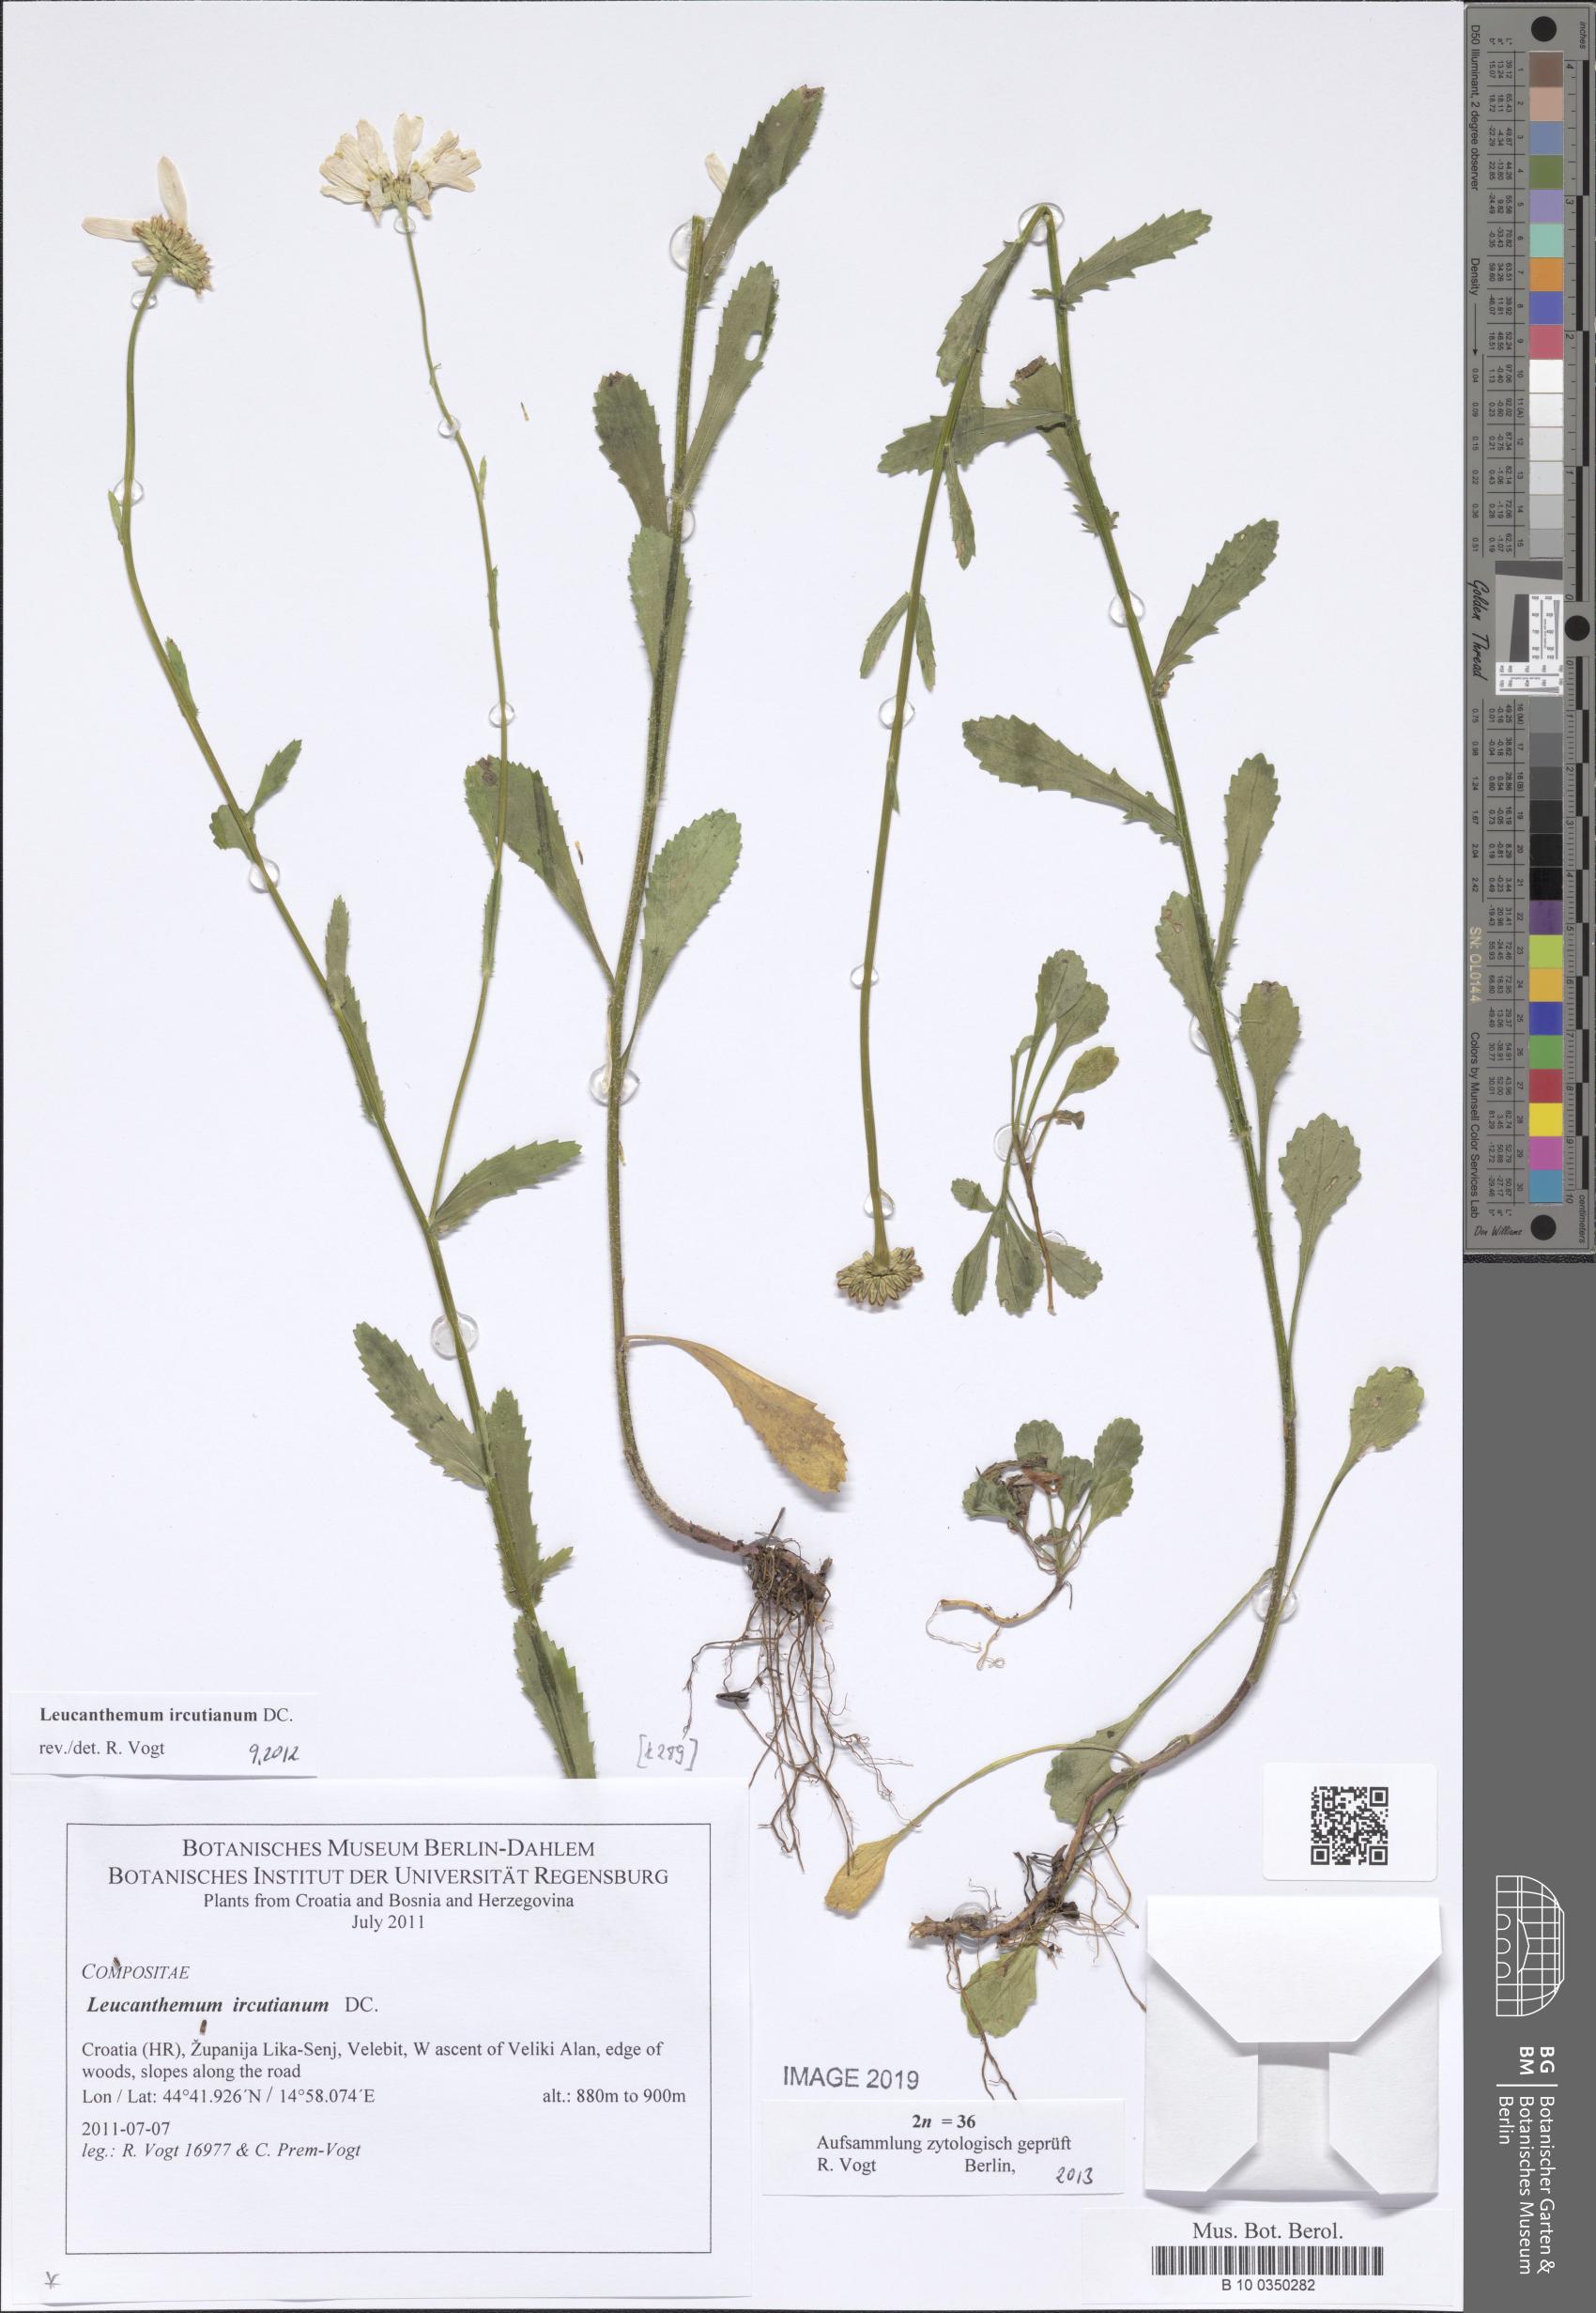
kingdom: Plantae
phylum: Tracheophyta
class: Magnoliopsida
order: Asterales
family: Asteraceae
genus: Leucanthemum
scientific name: Leucanthemum ircutianum
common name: Daisy
